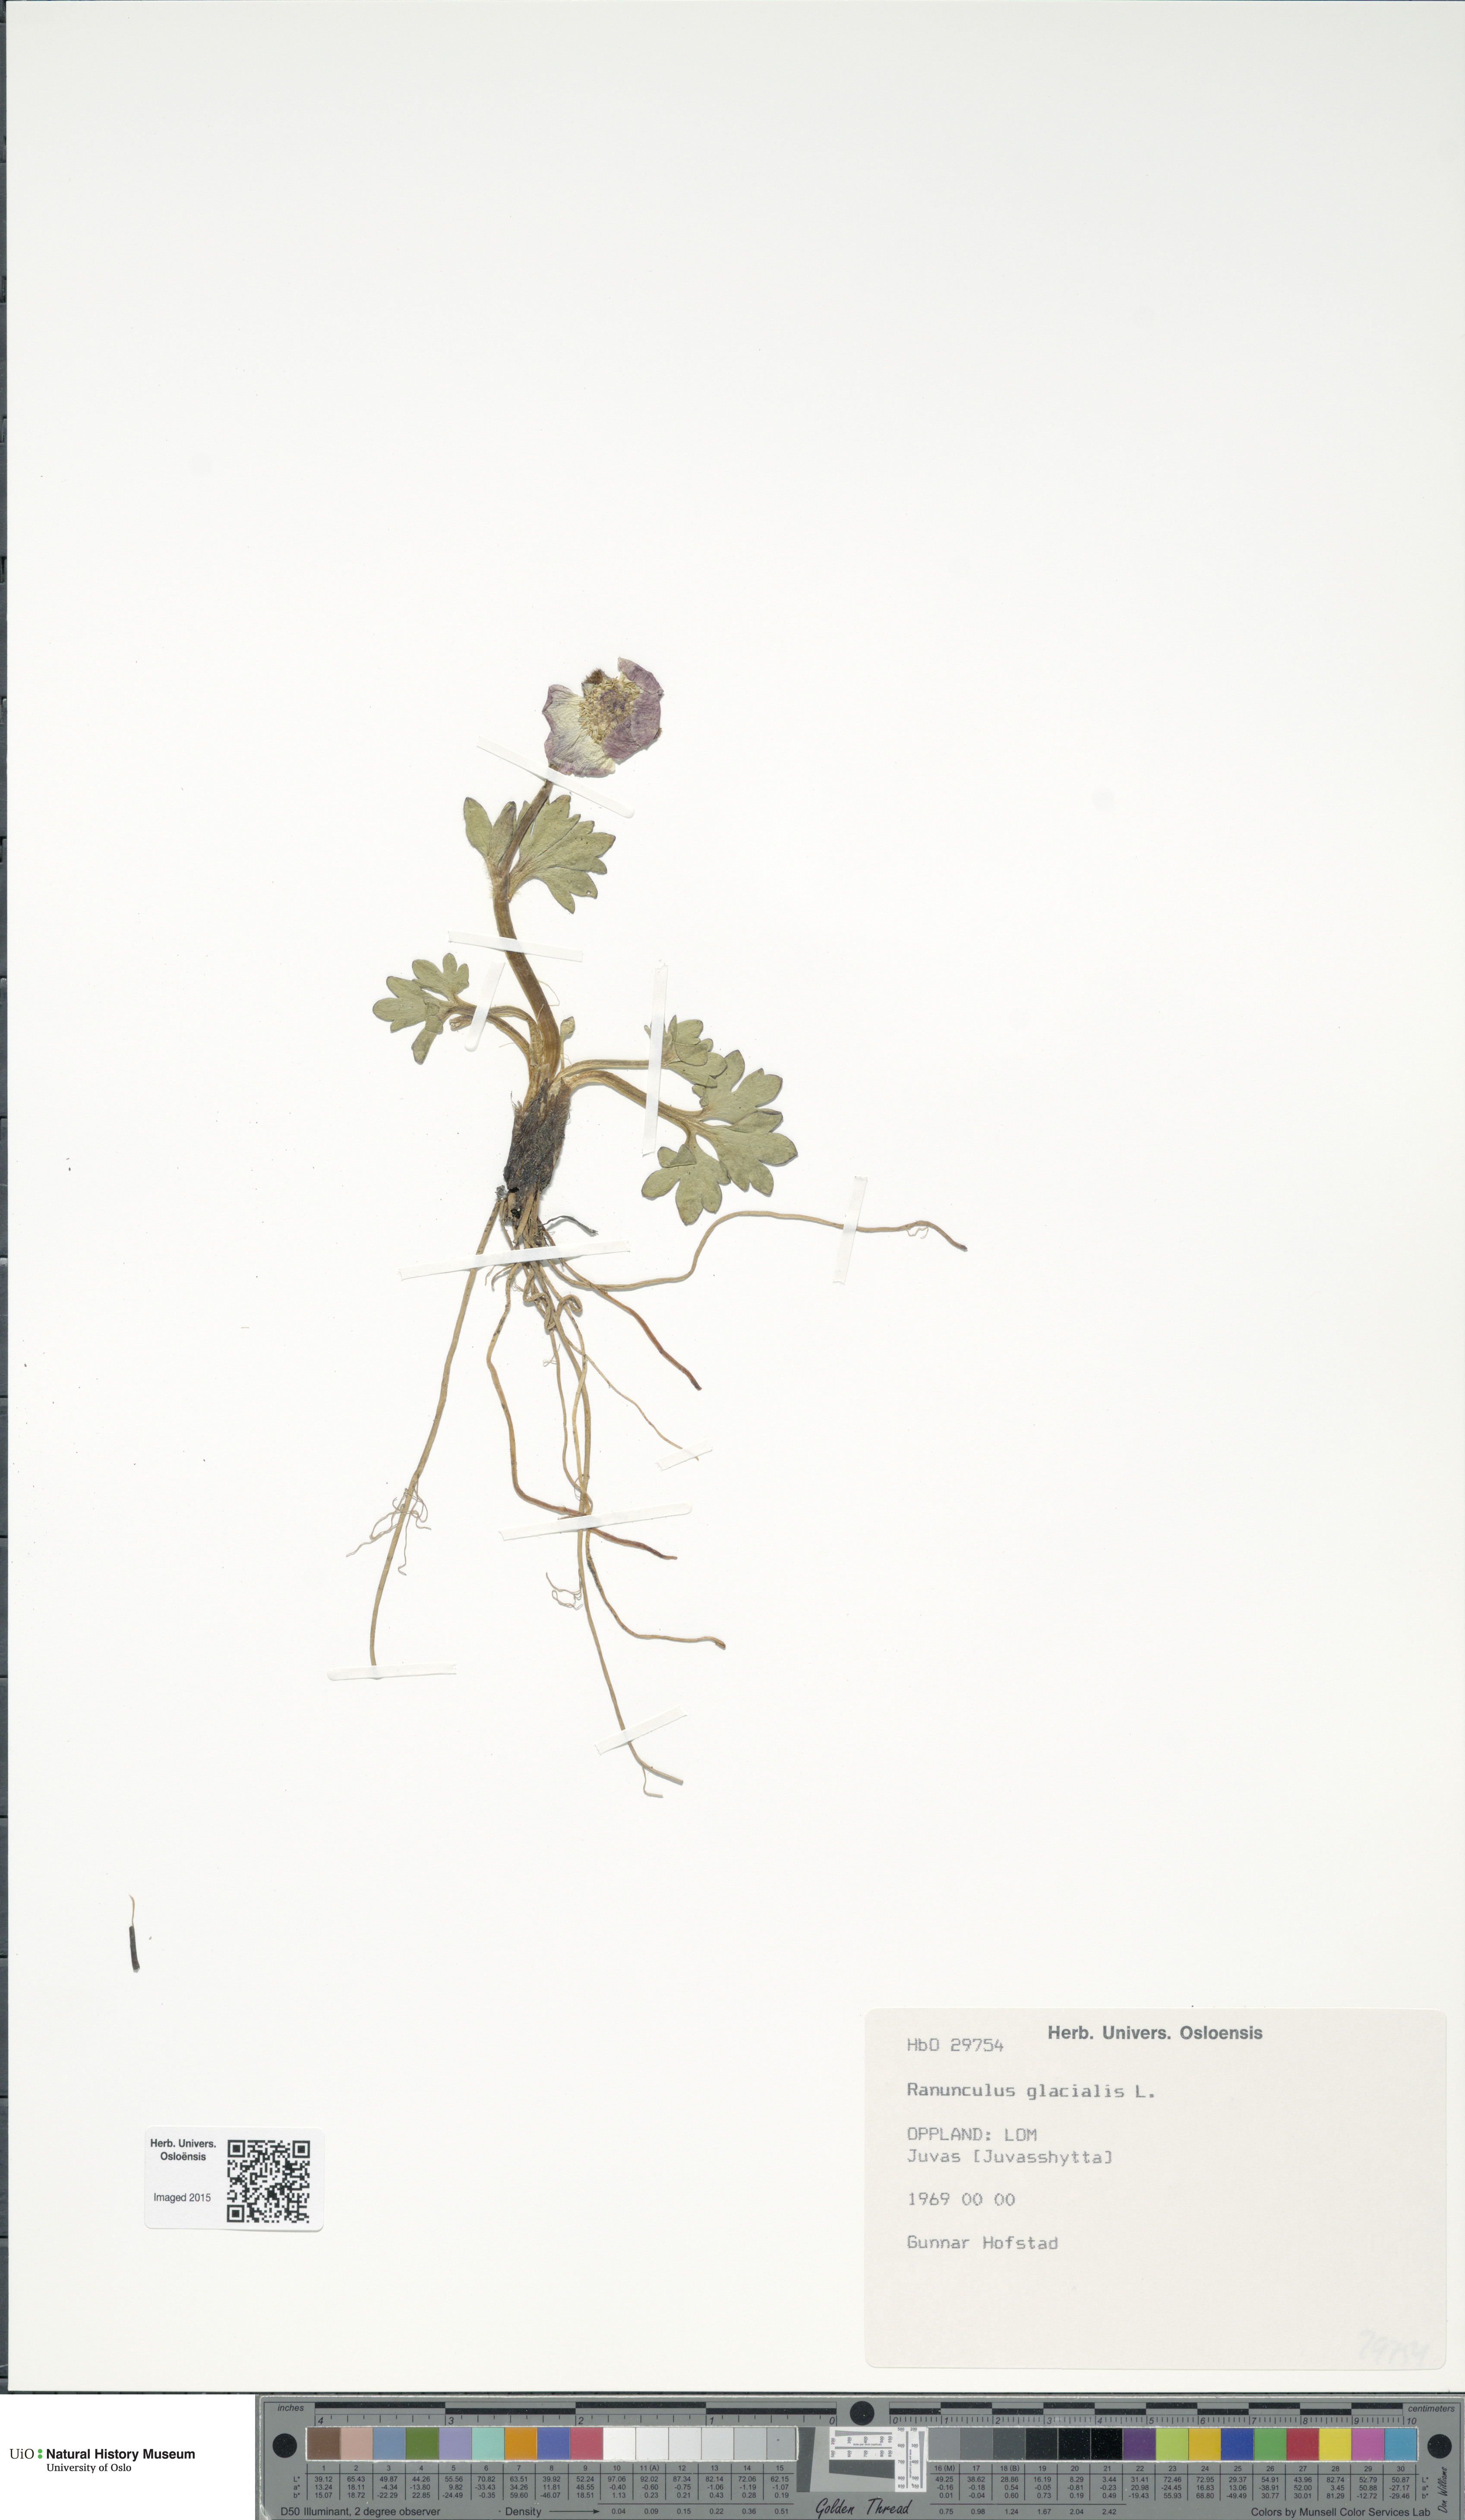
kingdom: Plantae
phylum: Tracheophyta
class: Magnoliopsida
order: Ranunculales
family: Ranunculaceae
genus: Ranunculus
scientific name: Ranunculus glacialis
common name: Glacier buttercup
